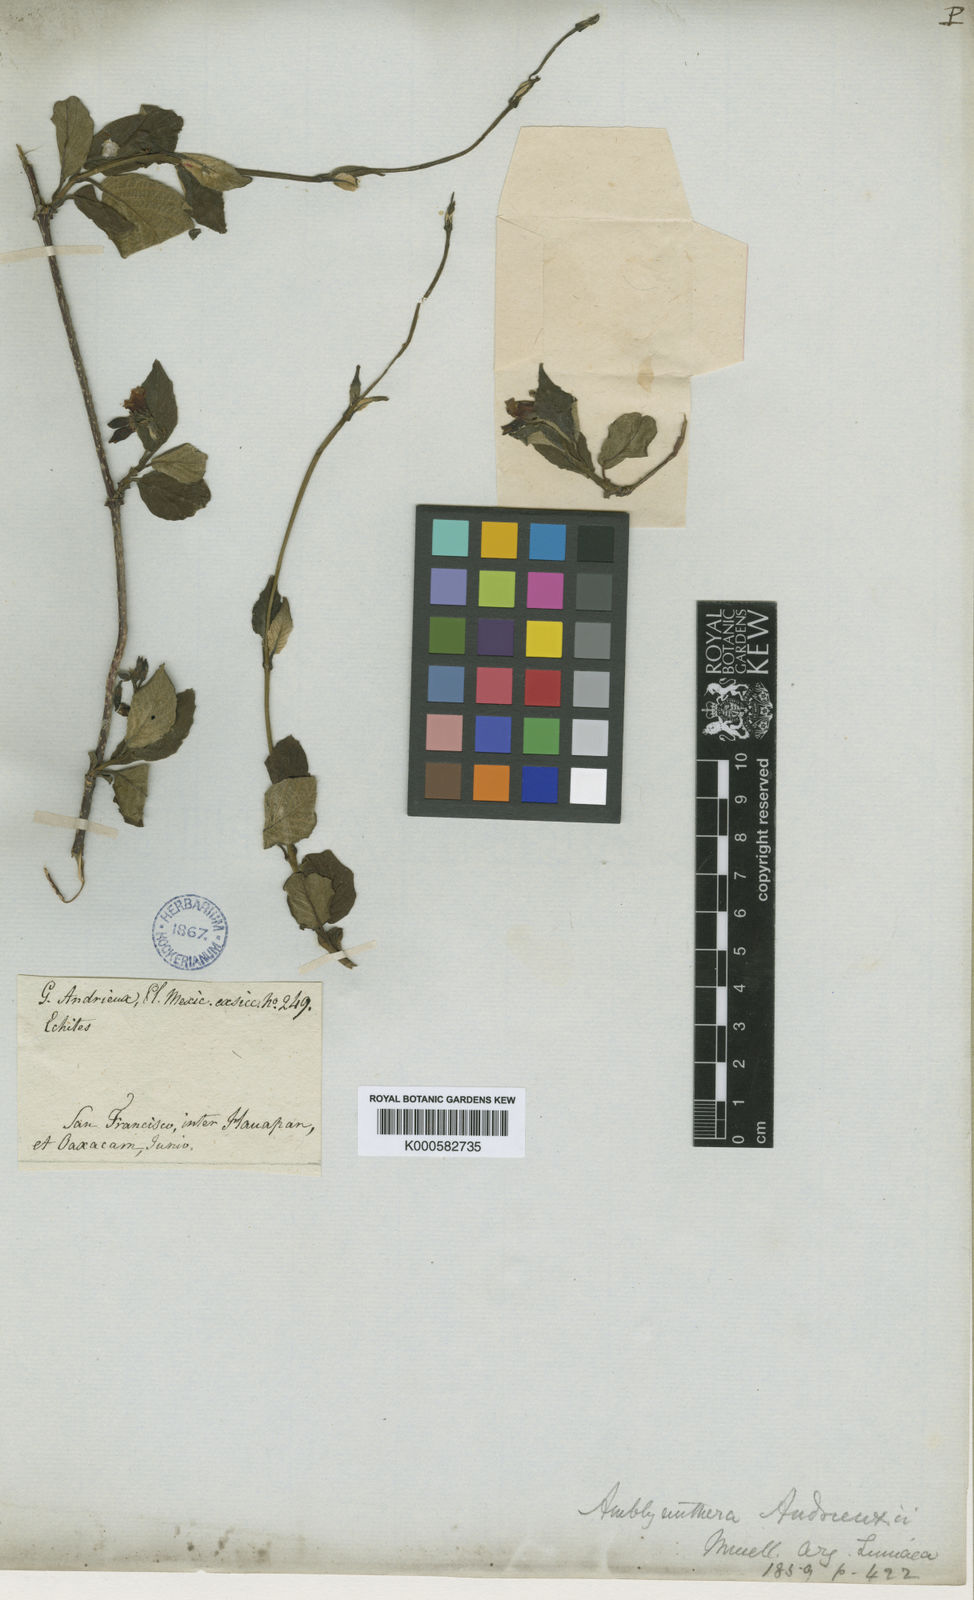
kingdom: Plantae
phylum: Tracheophyta
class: Magnoliopsida
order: Gentianales
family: Apocynaceae
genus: Mandevilla
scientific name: Mandevilla
